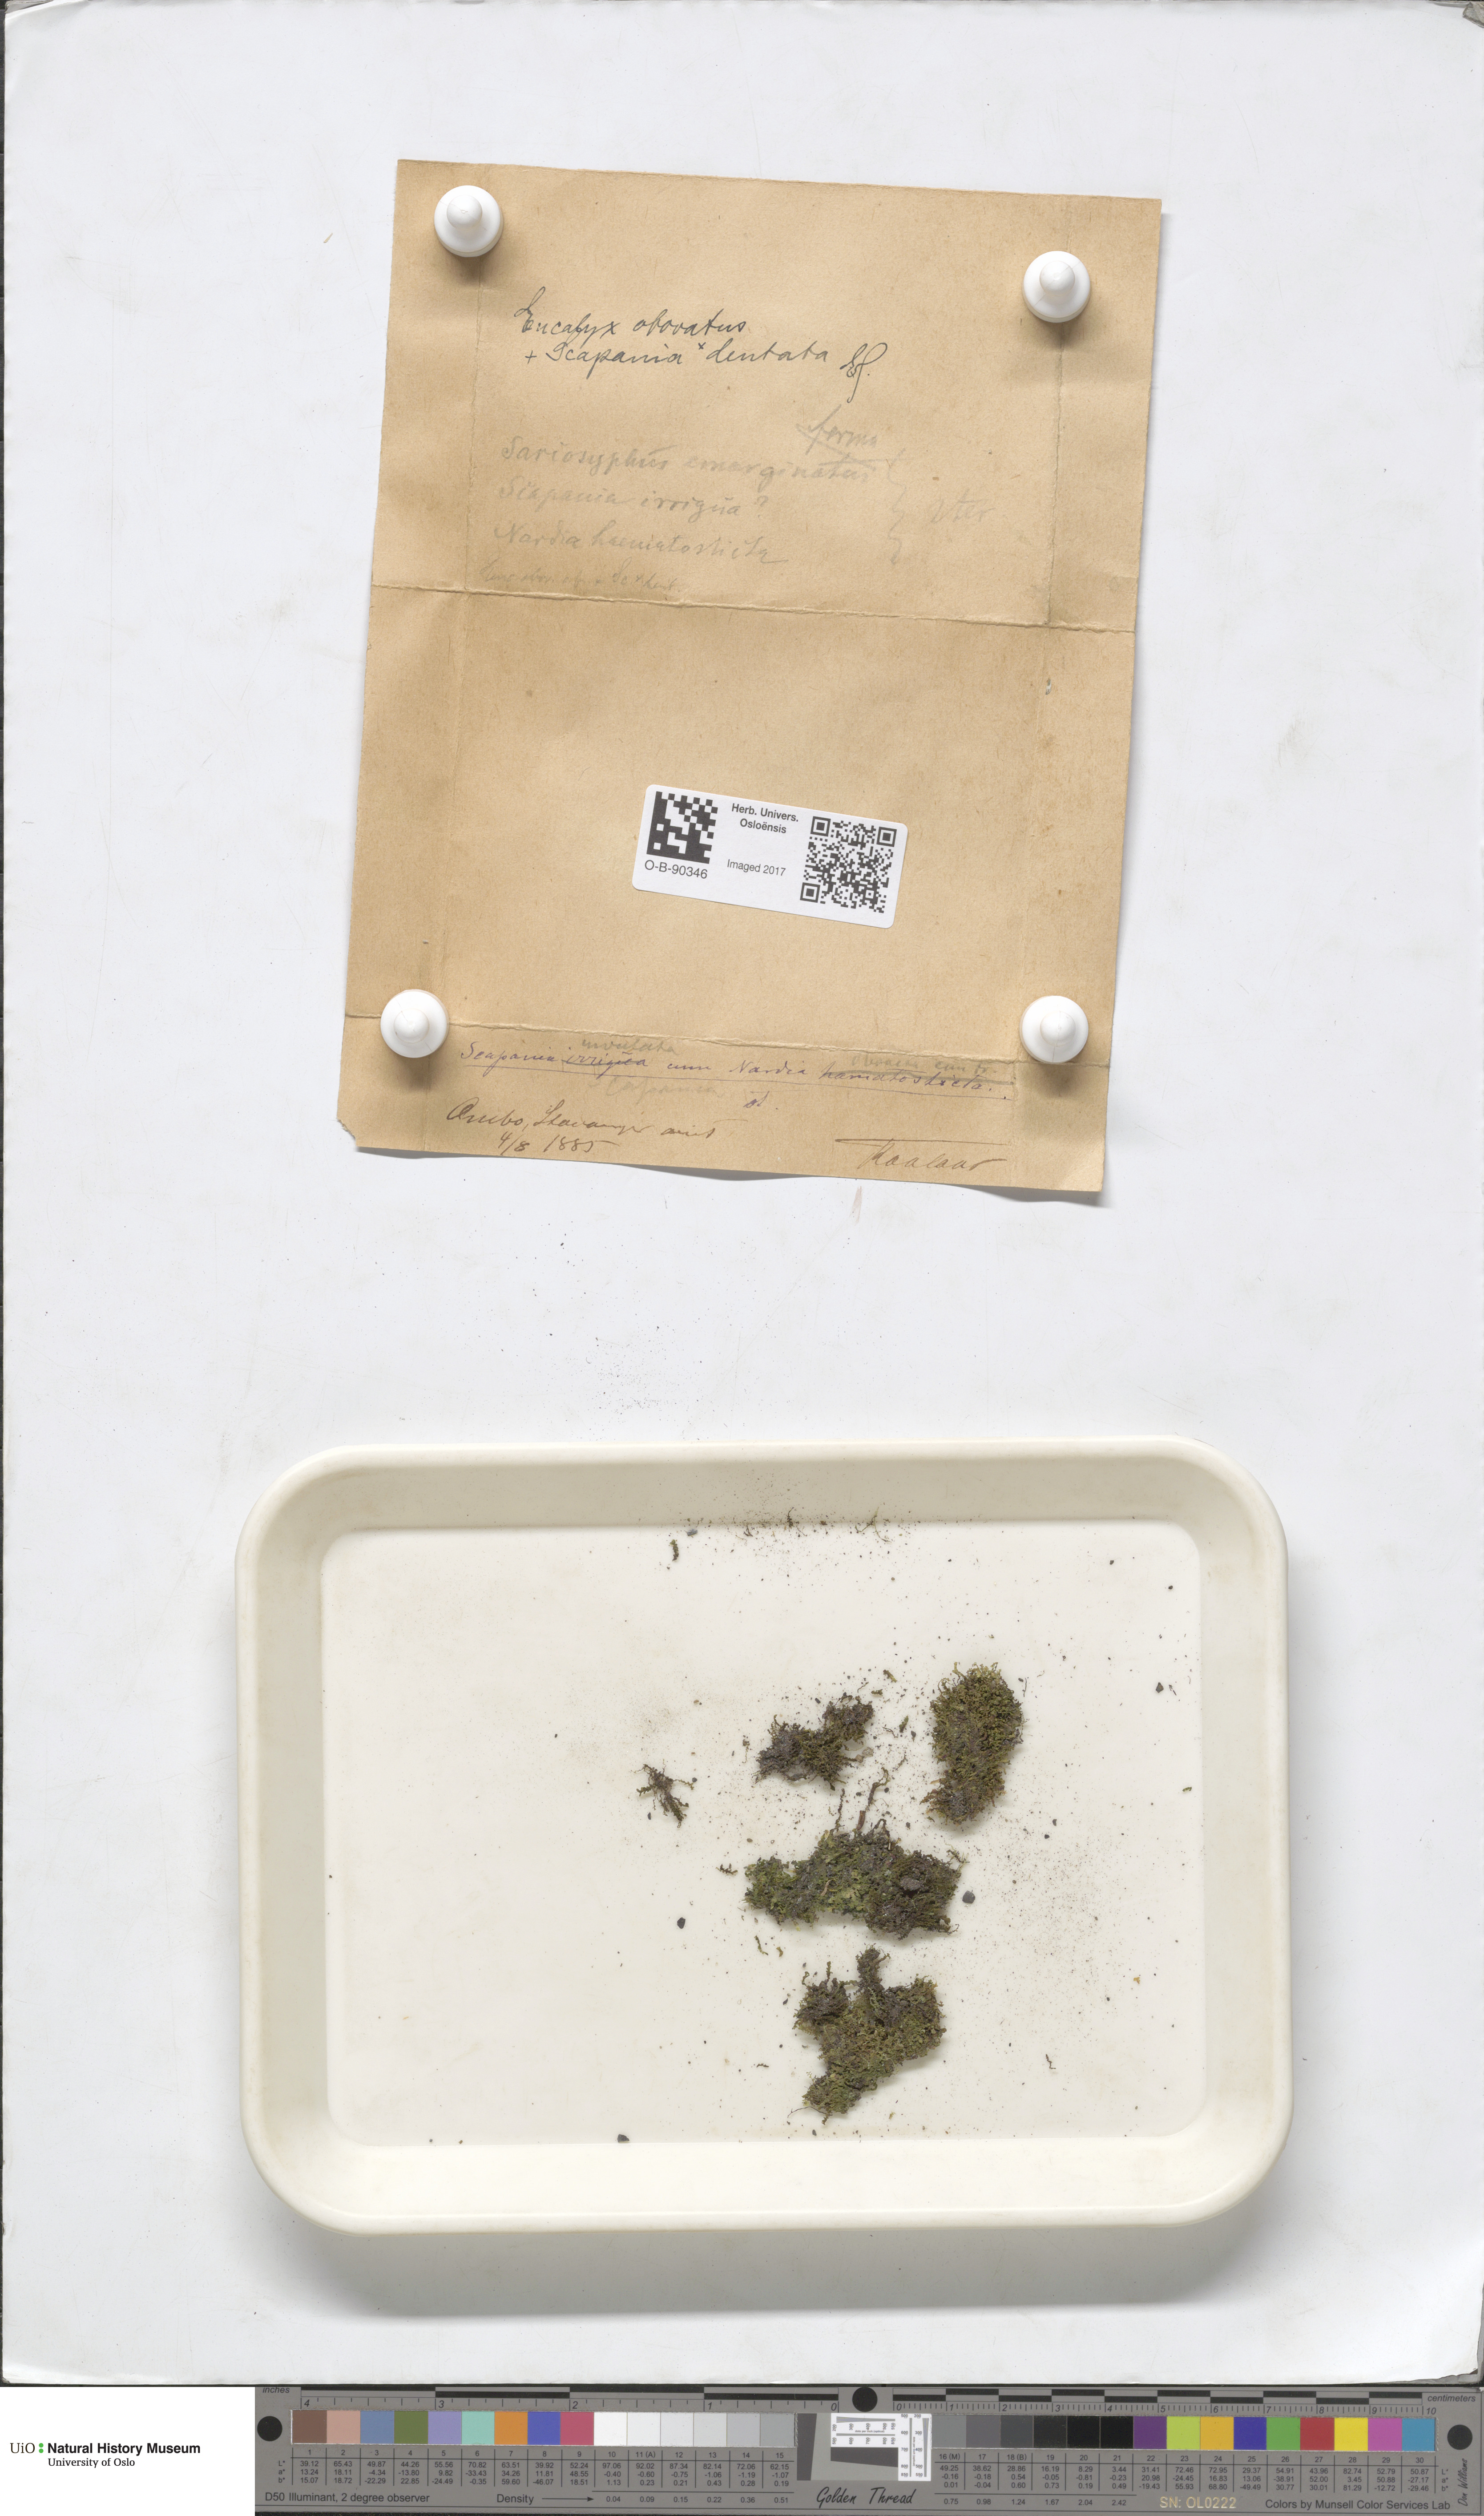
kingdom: Plantae
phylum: Marchantiophyta
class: Jungermanniopsida
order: Jungermanniales
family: Solenostomataceae
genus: Solenostoma
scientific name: Solenostoma obovatum
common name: Egg flapwort
